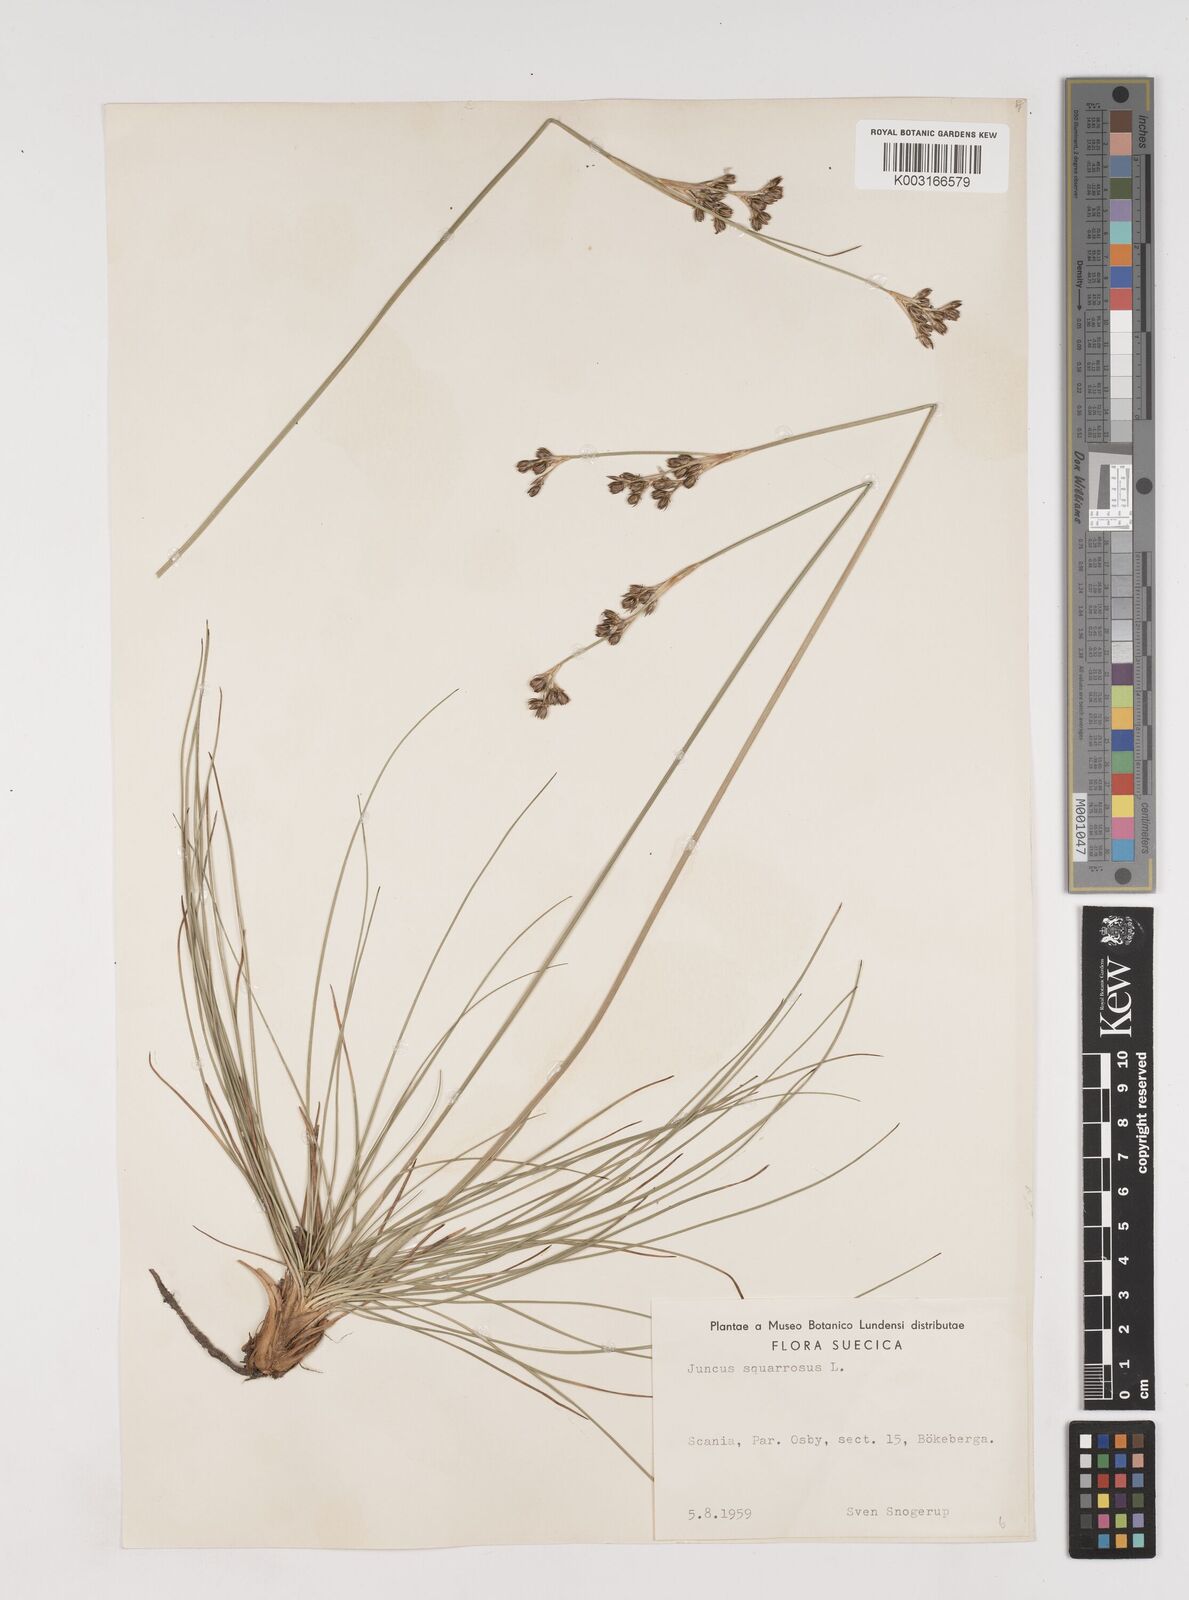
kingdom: Plantae
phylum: Tracheophyta
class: Liliopsida
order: Poales
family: Juncaceae
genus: Juncus
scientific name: Juncus squarrosus
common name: Heath rush
